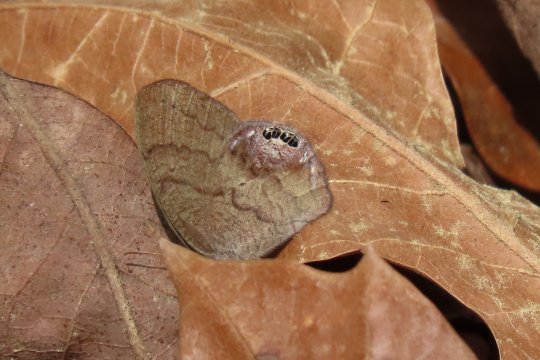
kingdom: Animalia
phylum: Arthropoda
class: Insecta
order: Lepidoptera
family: Nymphalidae
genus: Euptychia
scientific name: Euptychia cornelius
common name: Gemmed Satyr
